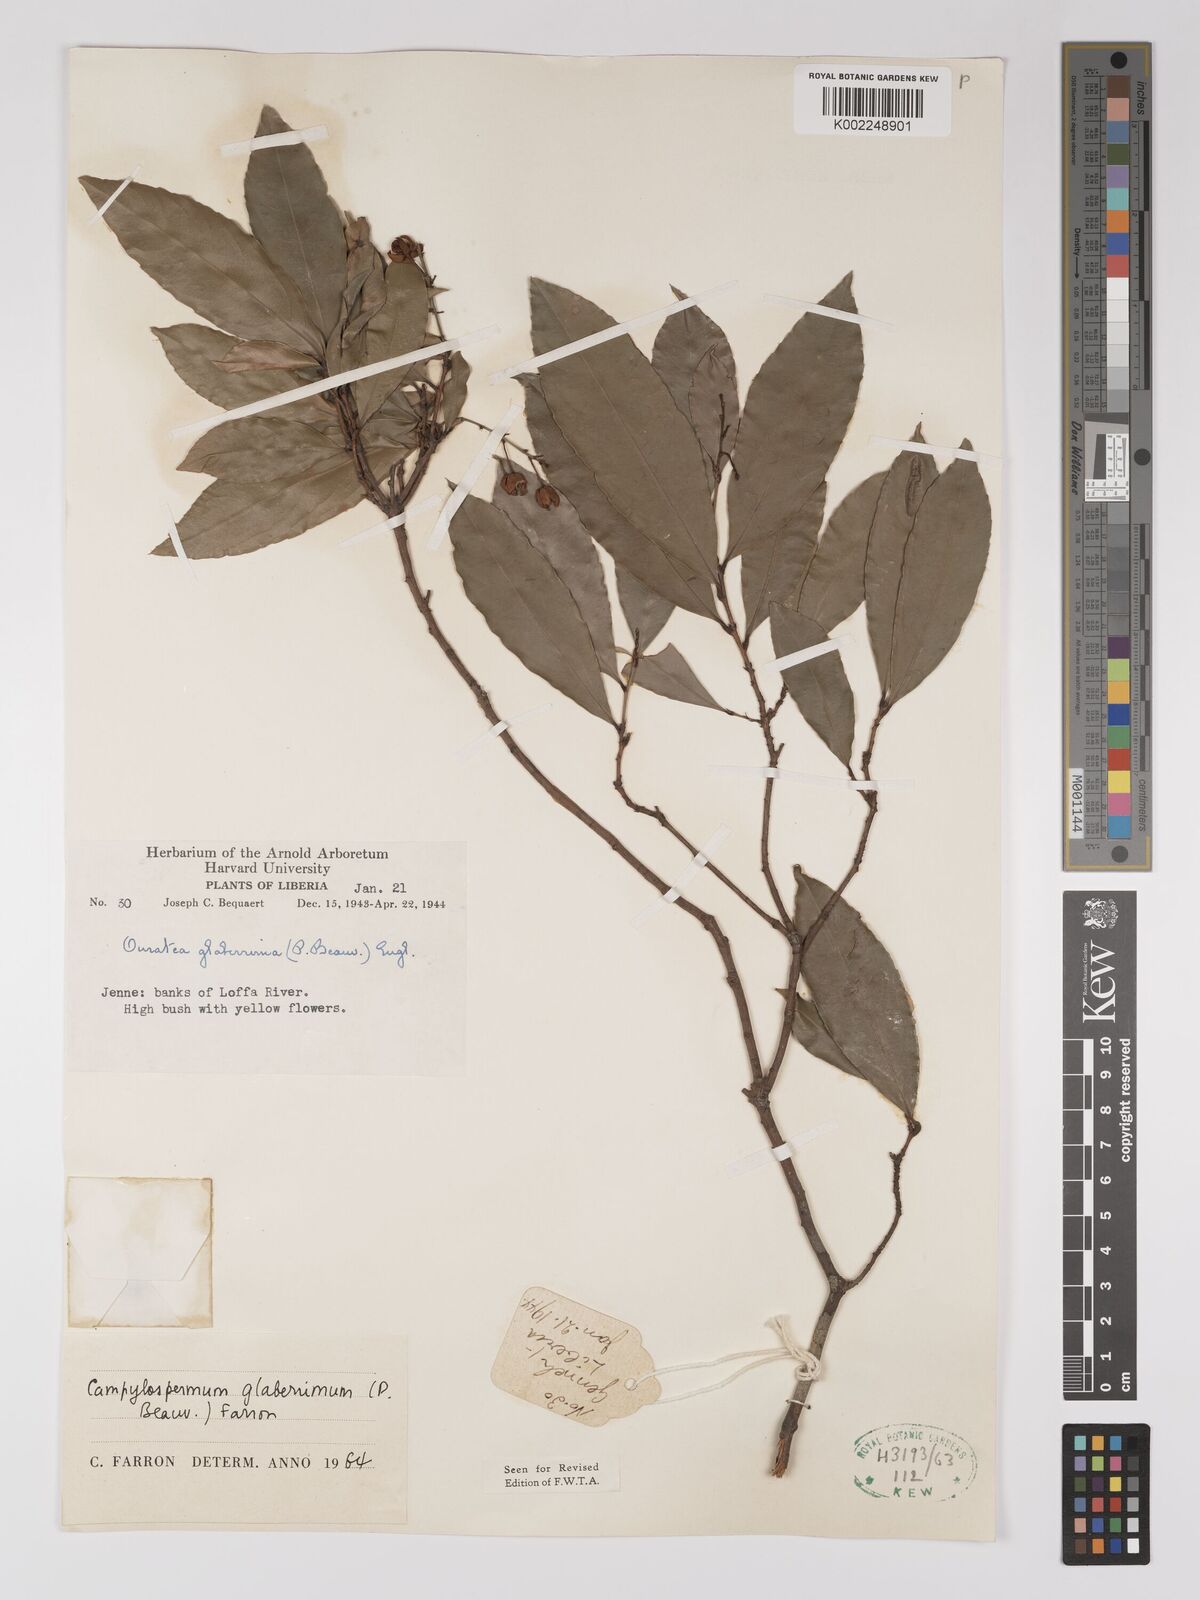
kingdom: Plantae
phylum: Tracheophyta
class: Magnoliopsida
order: Malpighiales
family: Ochnaceae
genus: Campylospermum
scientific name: Campylospermum glaberrimum
